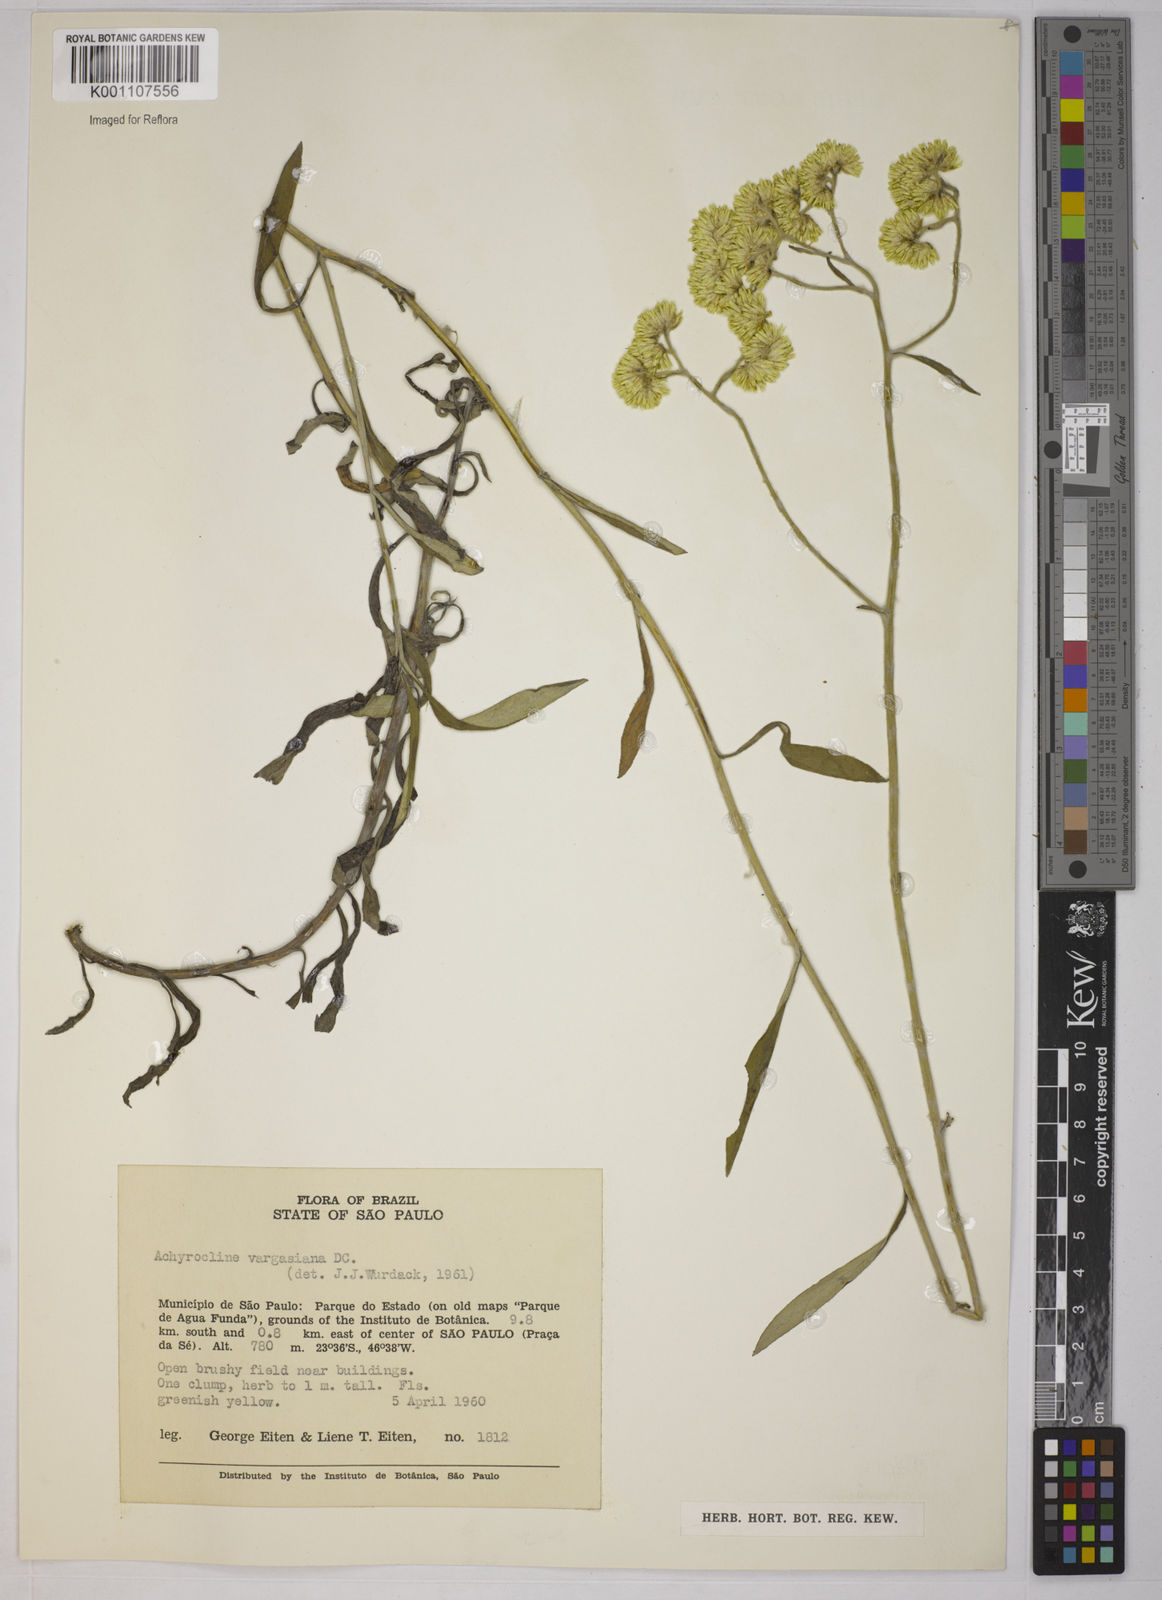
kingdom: Plantae
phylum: Tracheophyta
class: Magnoliopsida
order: Asterales
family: Asteraceae
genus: Achyrocline
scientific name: Achyrocline vargasiana
